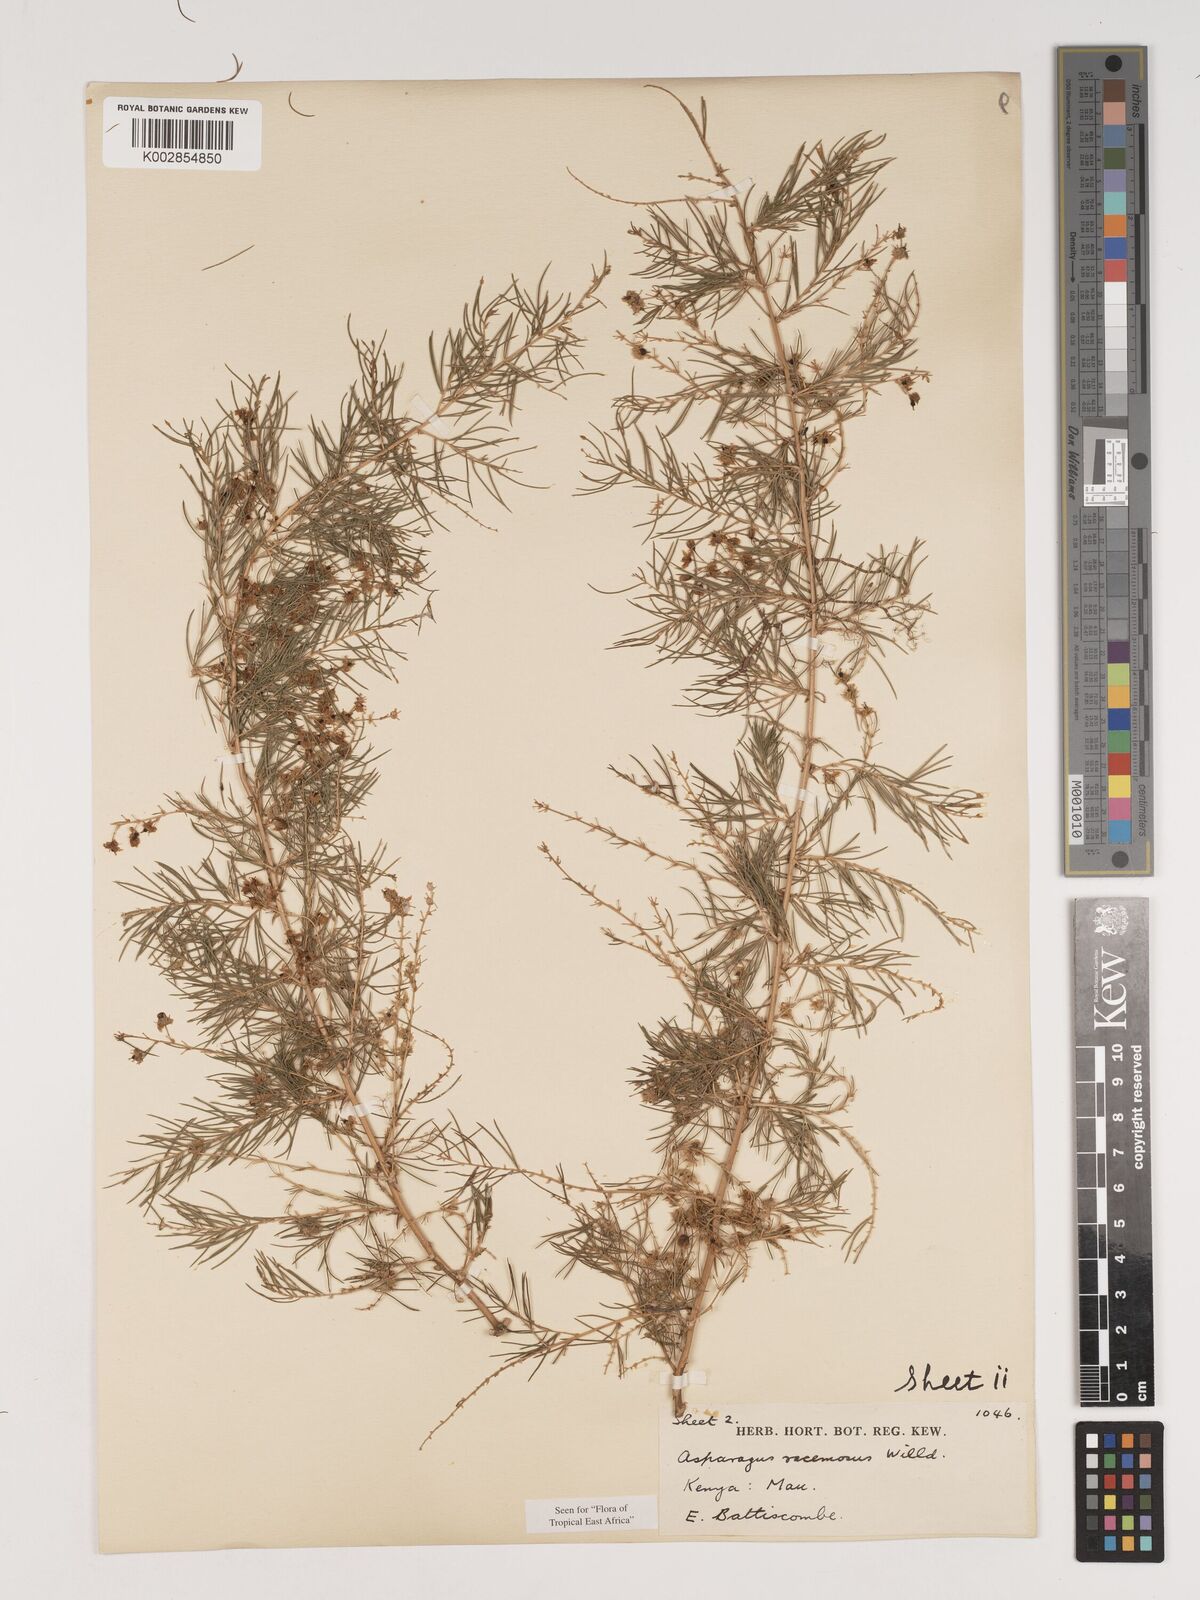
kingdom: Plantae
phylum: Tracheophyta
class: Liliopsida
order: Asparagales
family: Asparagaceae
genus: Asparagus
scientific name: Asparagus racemosus
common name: Asparagus-fern
